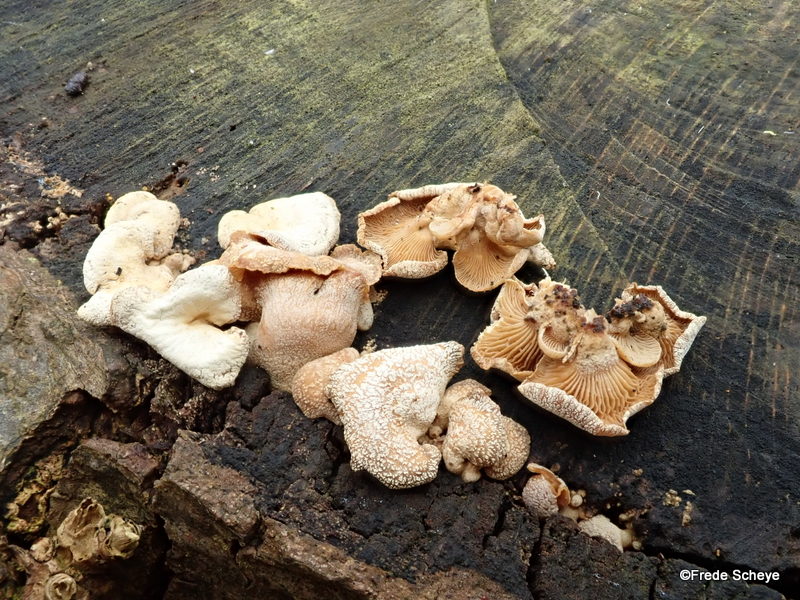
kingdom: Fungi
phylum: Basidiomycota
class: Agaricomycetes
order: Agaricales
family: Mycenaceae
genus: Panellus
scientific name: Panellus stipticus
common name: kliddet epaulethat
